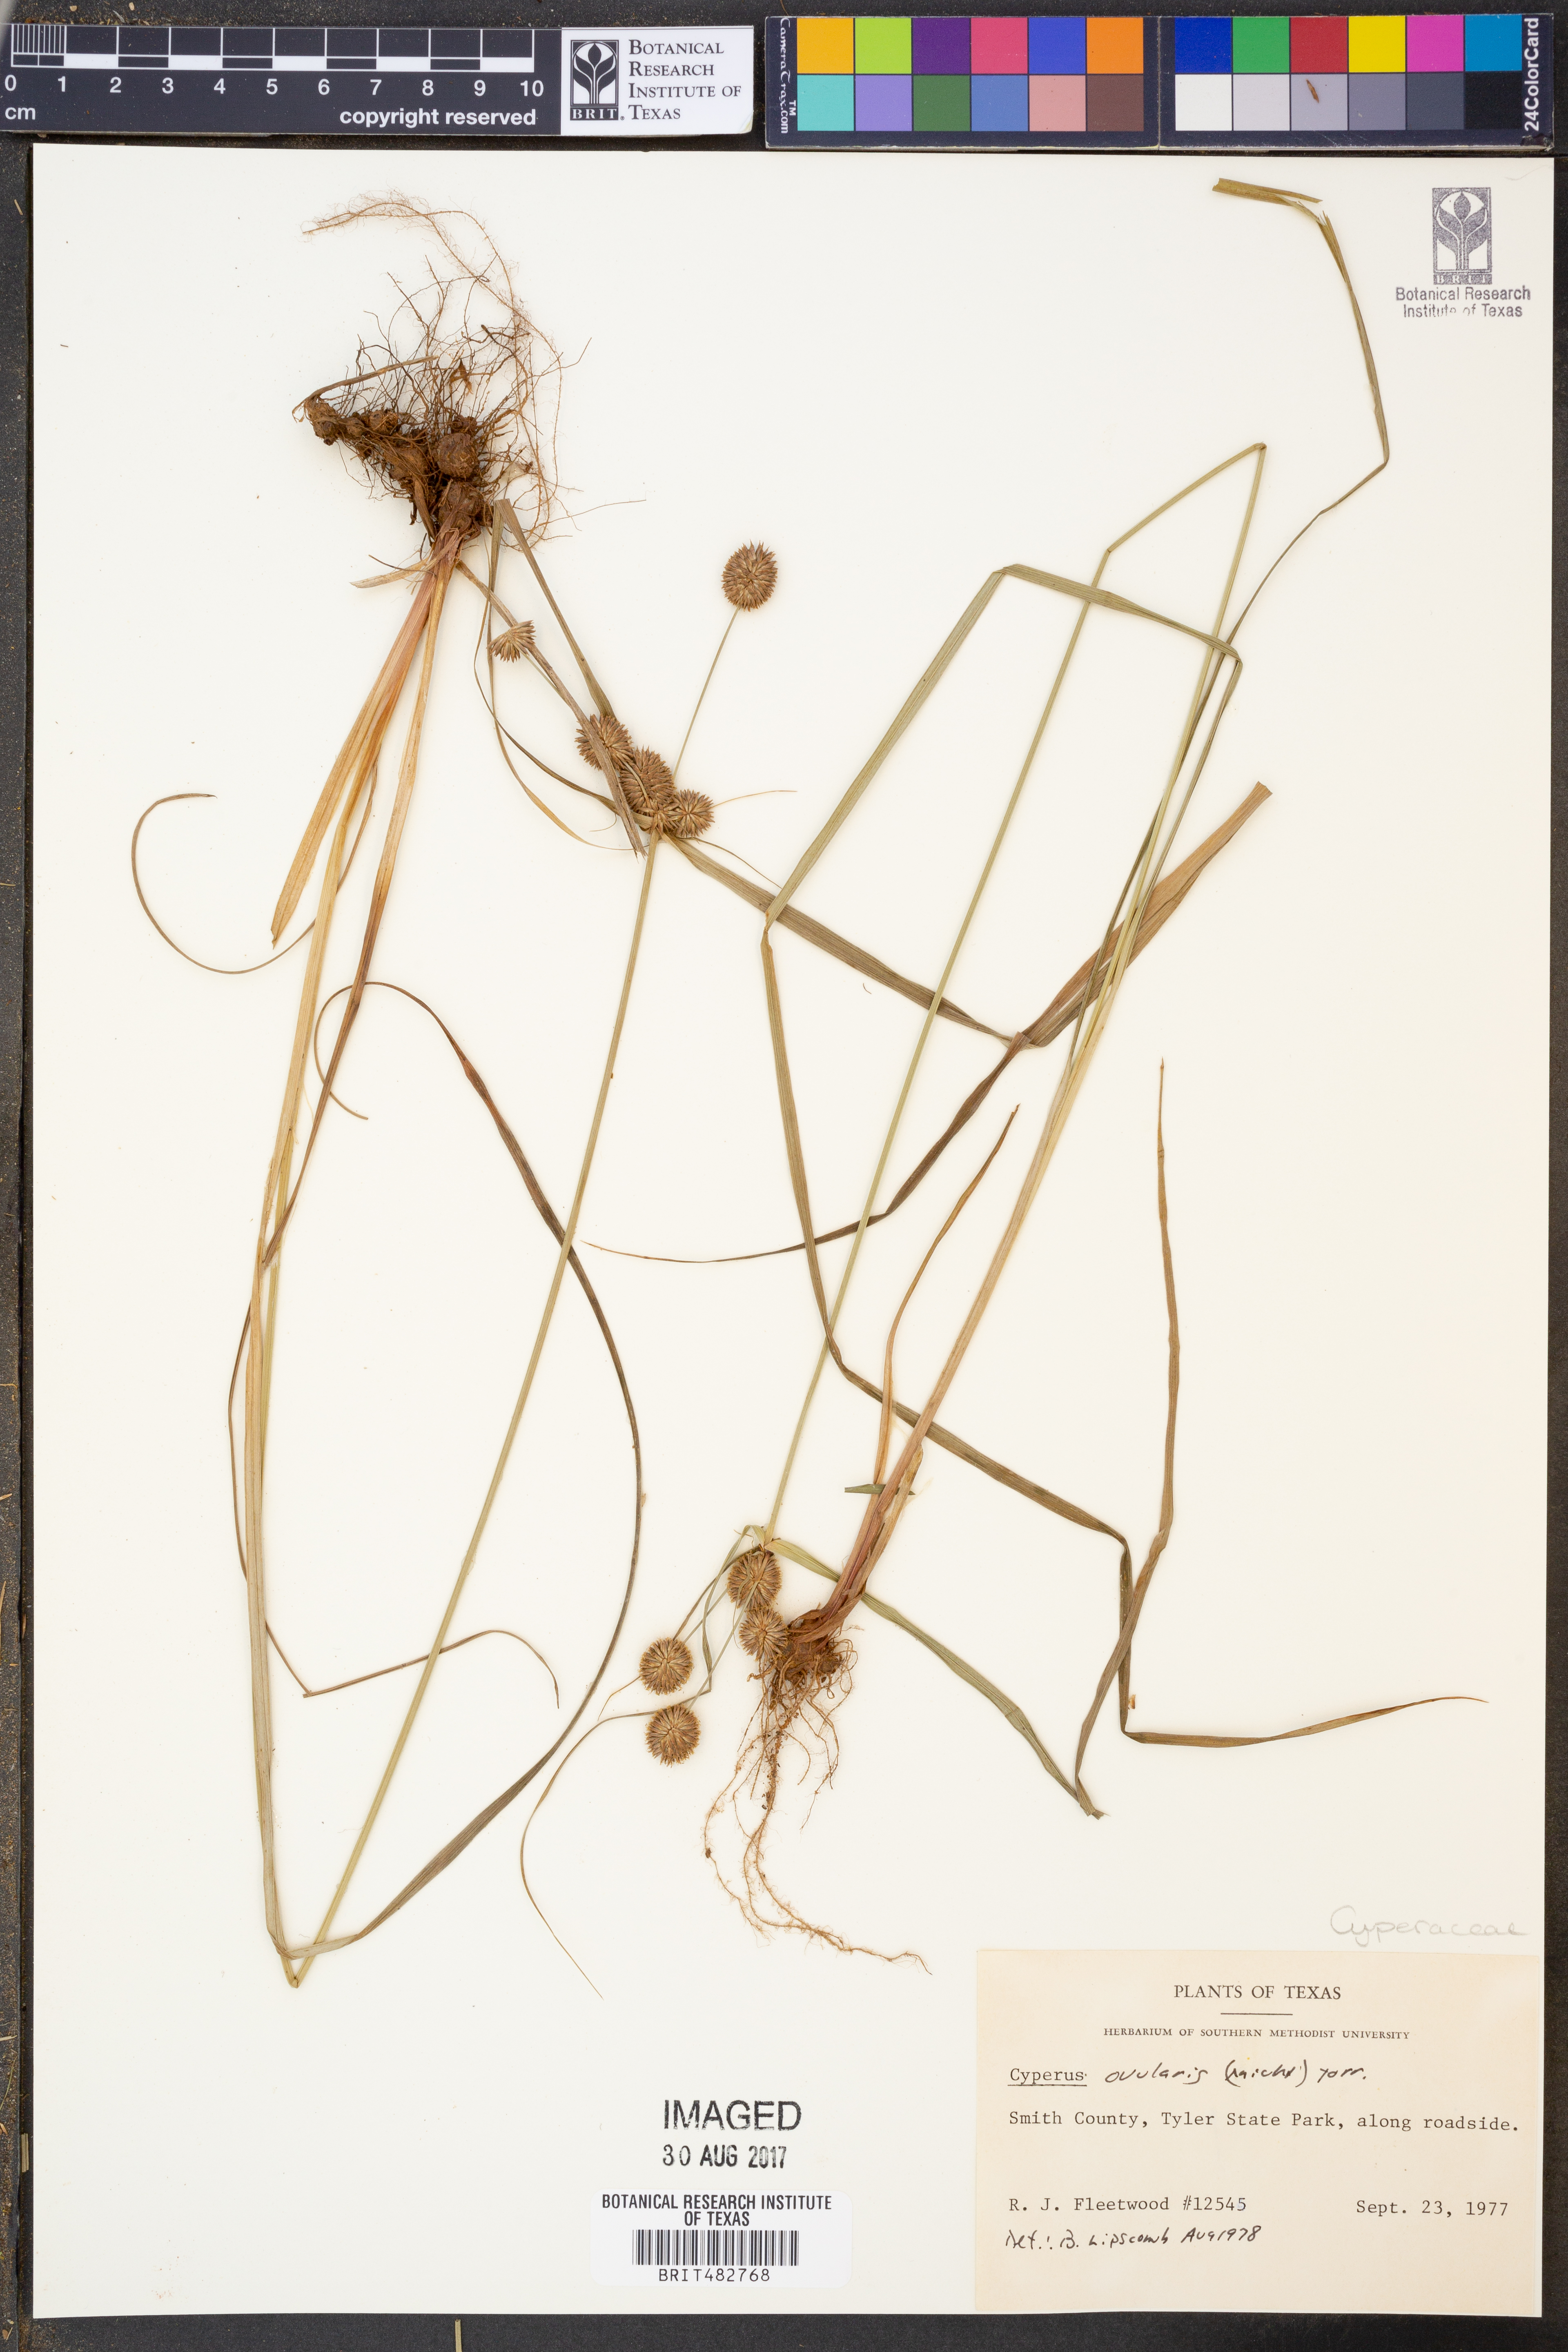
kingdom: Plantae
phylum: Tracheophyta
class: Liliopsida
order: Poales
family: Cyperaceae
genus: Cyperus
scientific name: Cyperus echinatus
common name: Teasel sedge
